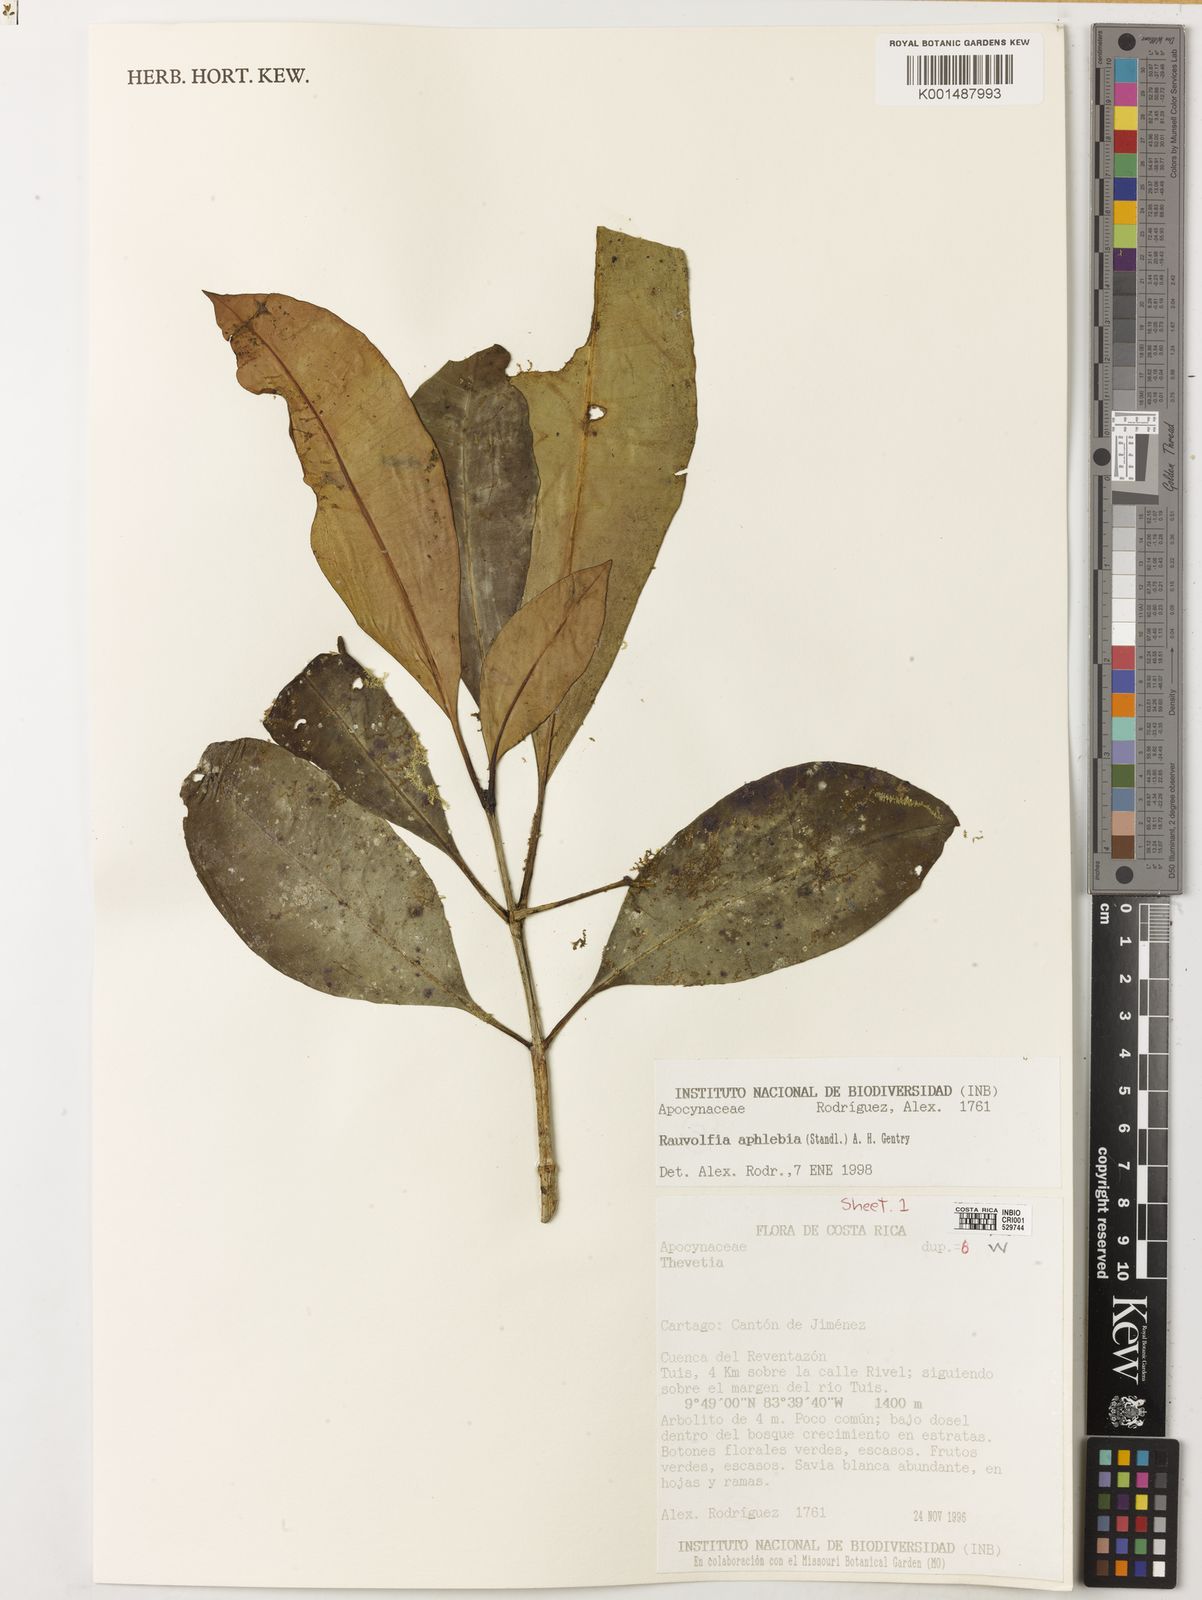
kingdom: Plantae
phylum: Tracheophyta
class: Magnoliopsida
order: Gentianales
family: Apocynaceae
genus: Rauvolfia
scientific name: Rauvolfia aphlebia
